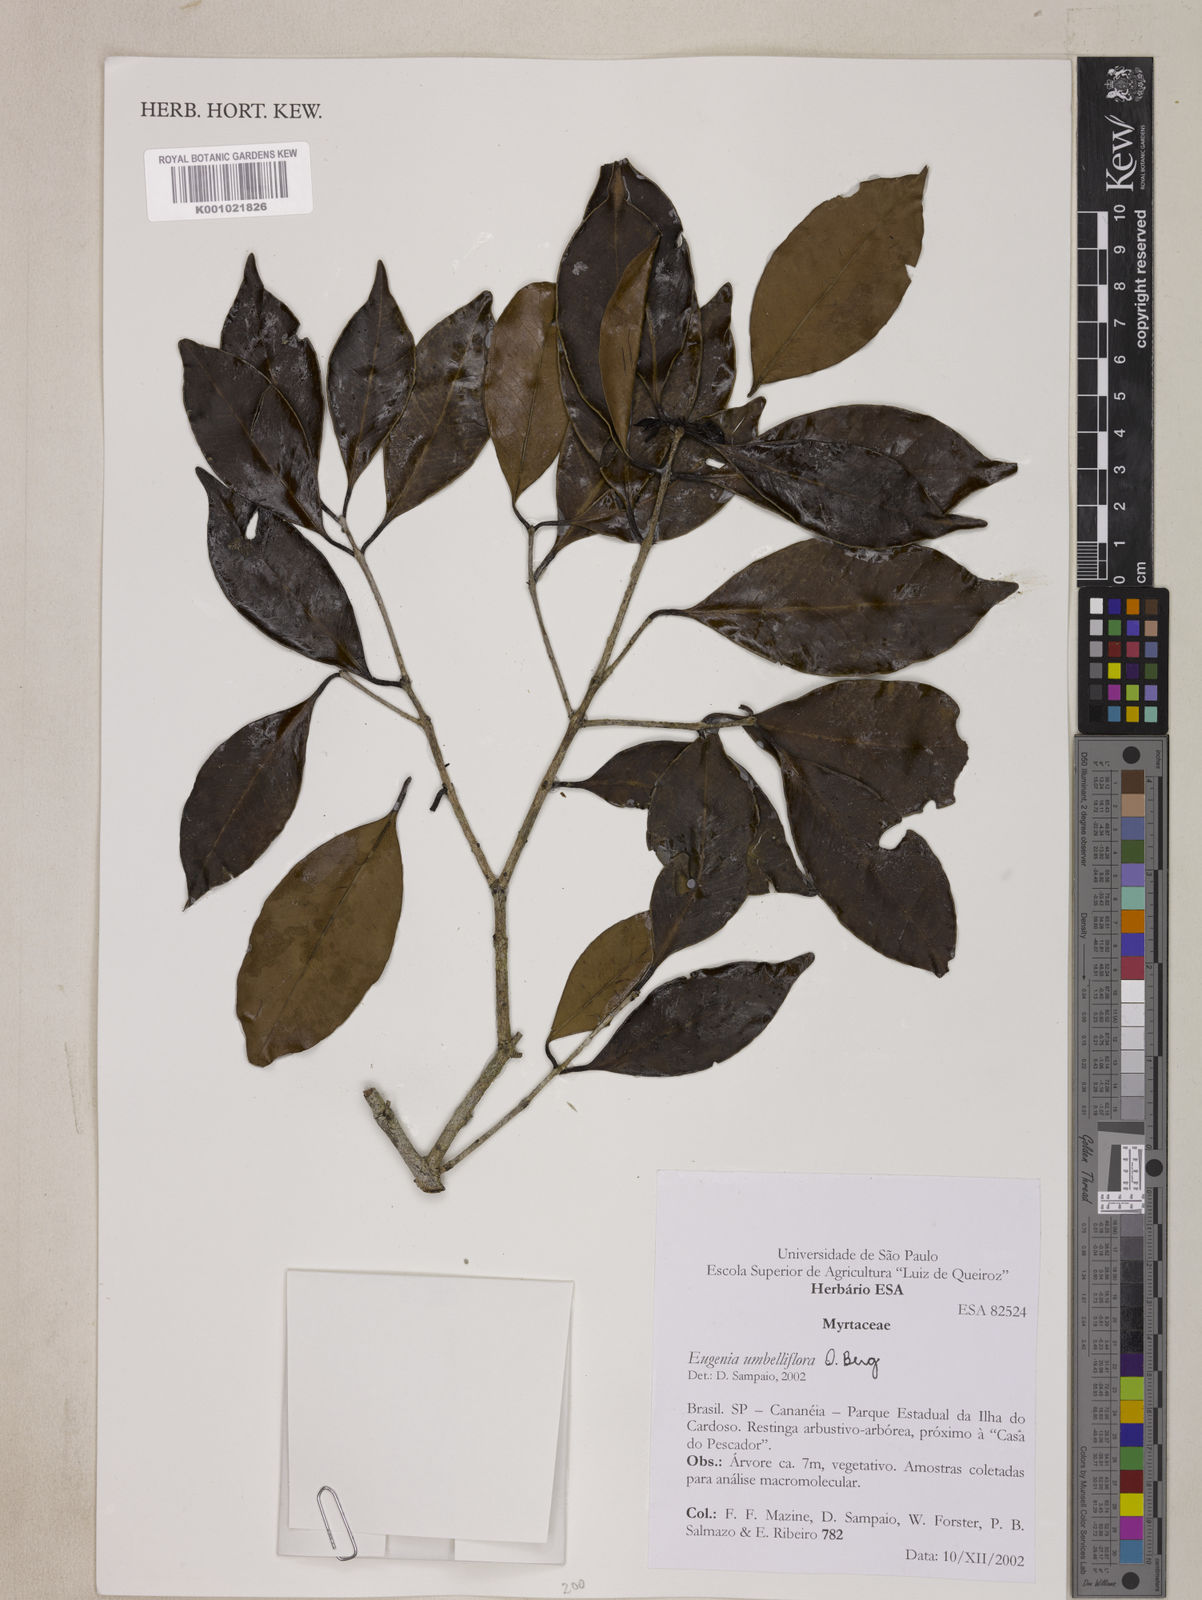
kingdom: Plantae
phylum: Tracheophyta
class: Magnoliopsida
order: Myrtales
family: Myrtaceae
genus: Eugenia
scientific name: Eugenia astringens
